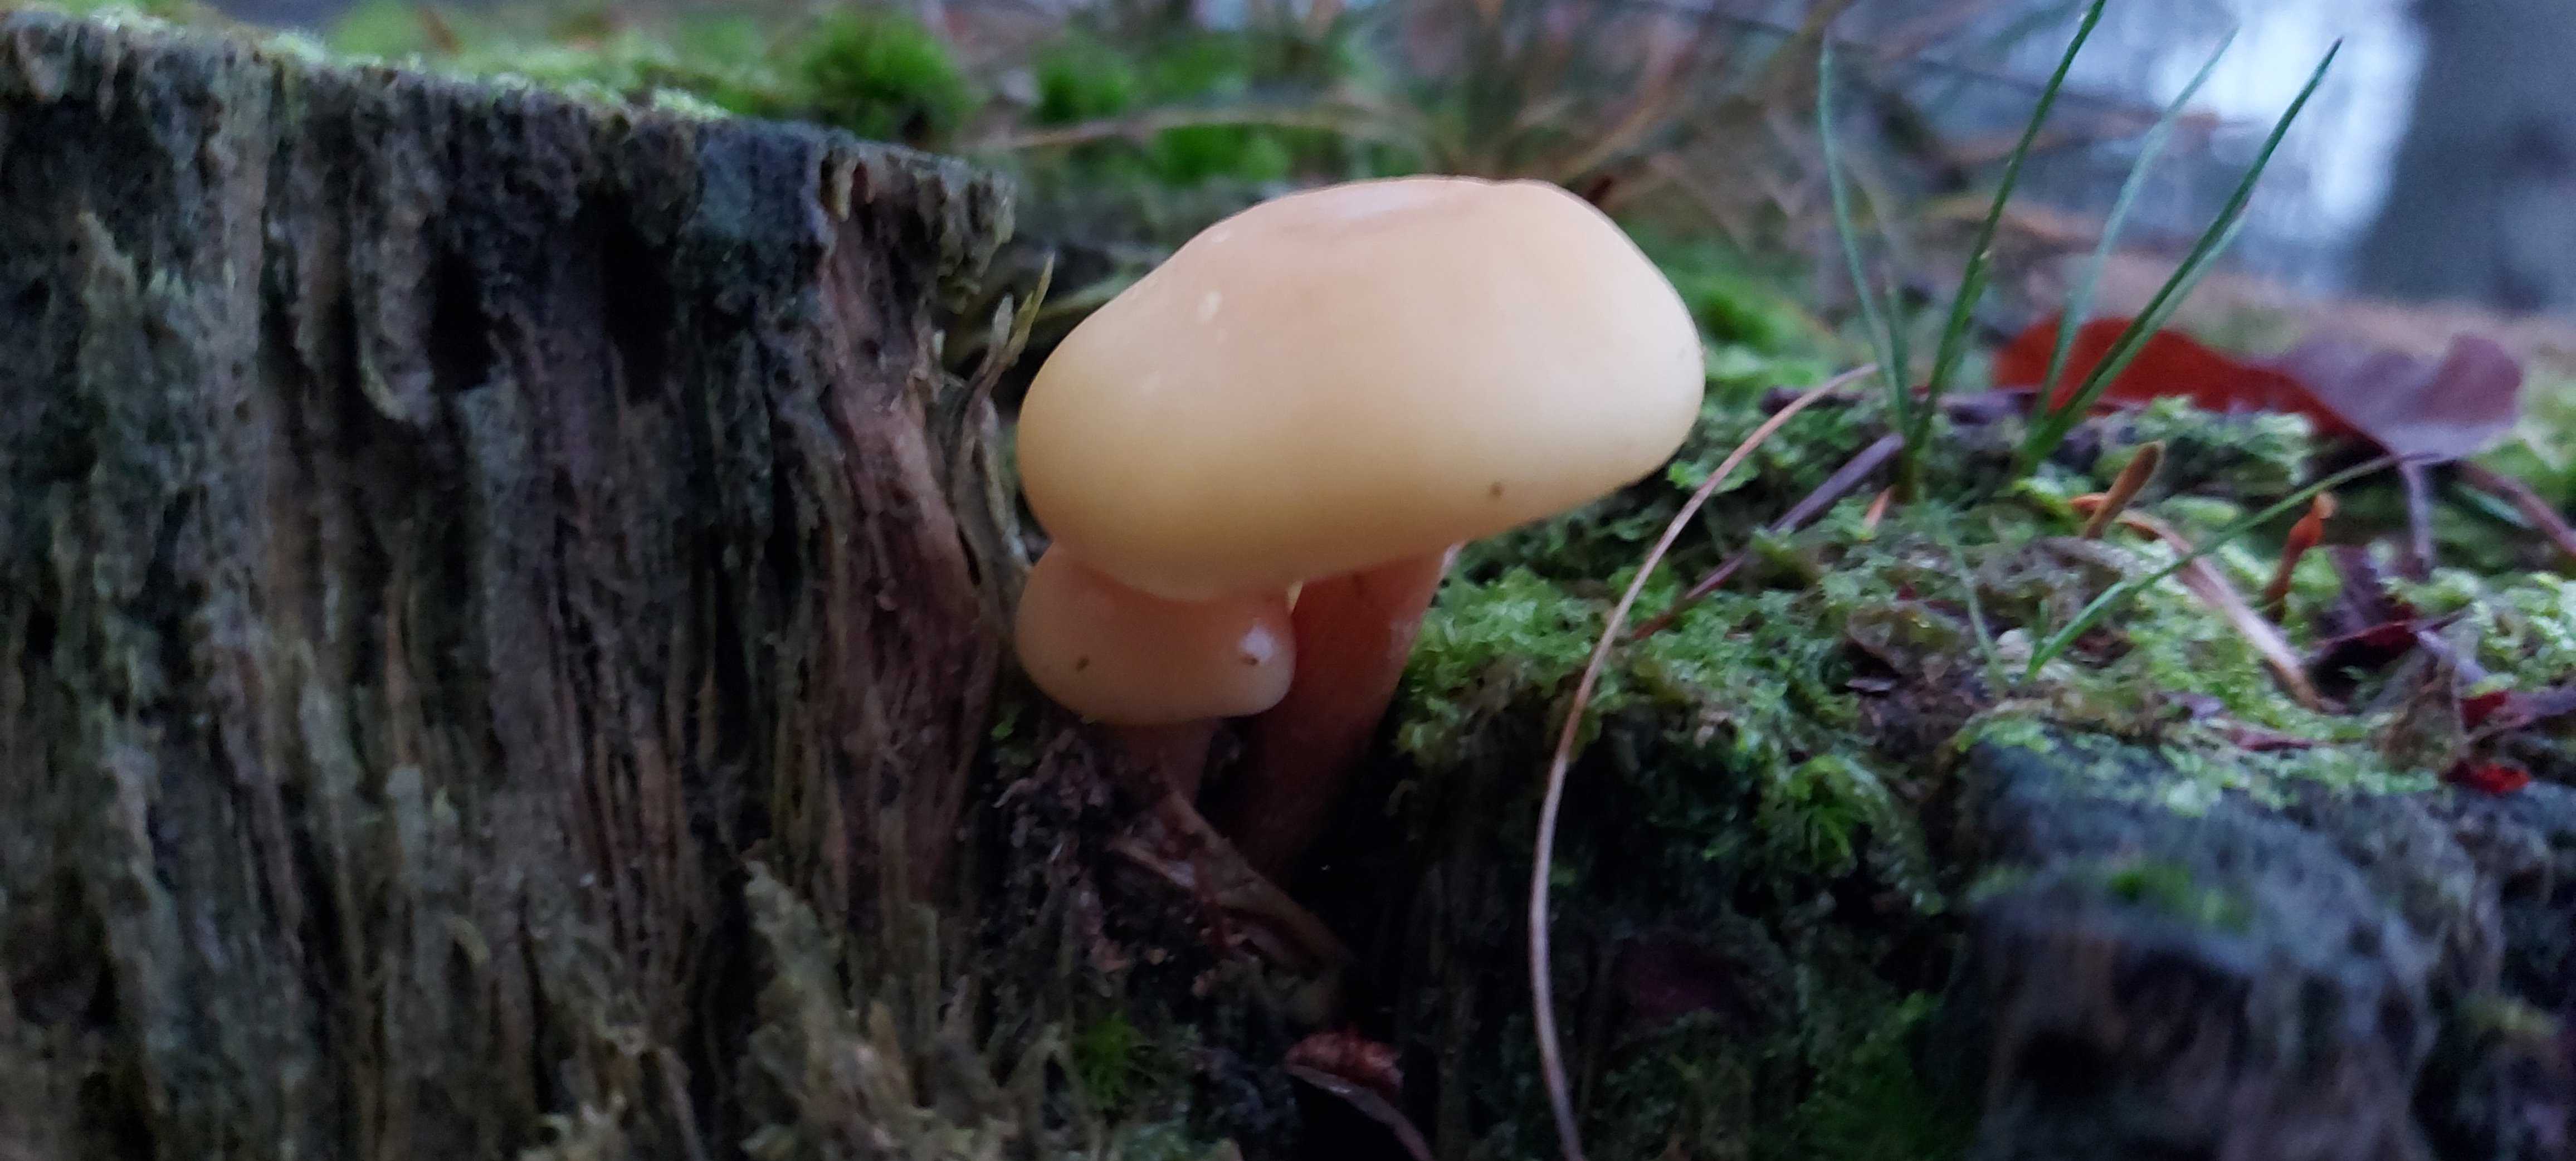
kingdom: Fungi
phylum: Basidiomycota
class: Agaricomycetes
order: Agaricales
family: Strophariaceae
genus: Hypholoma
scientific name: Hypholoma capnoides
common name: gran-svovlhat
